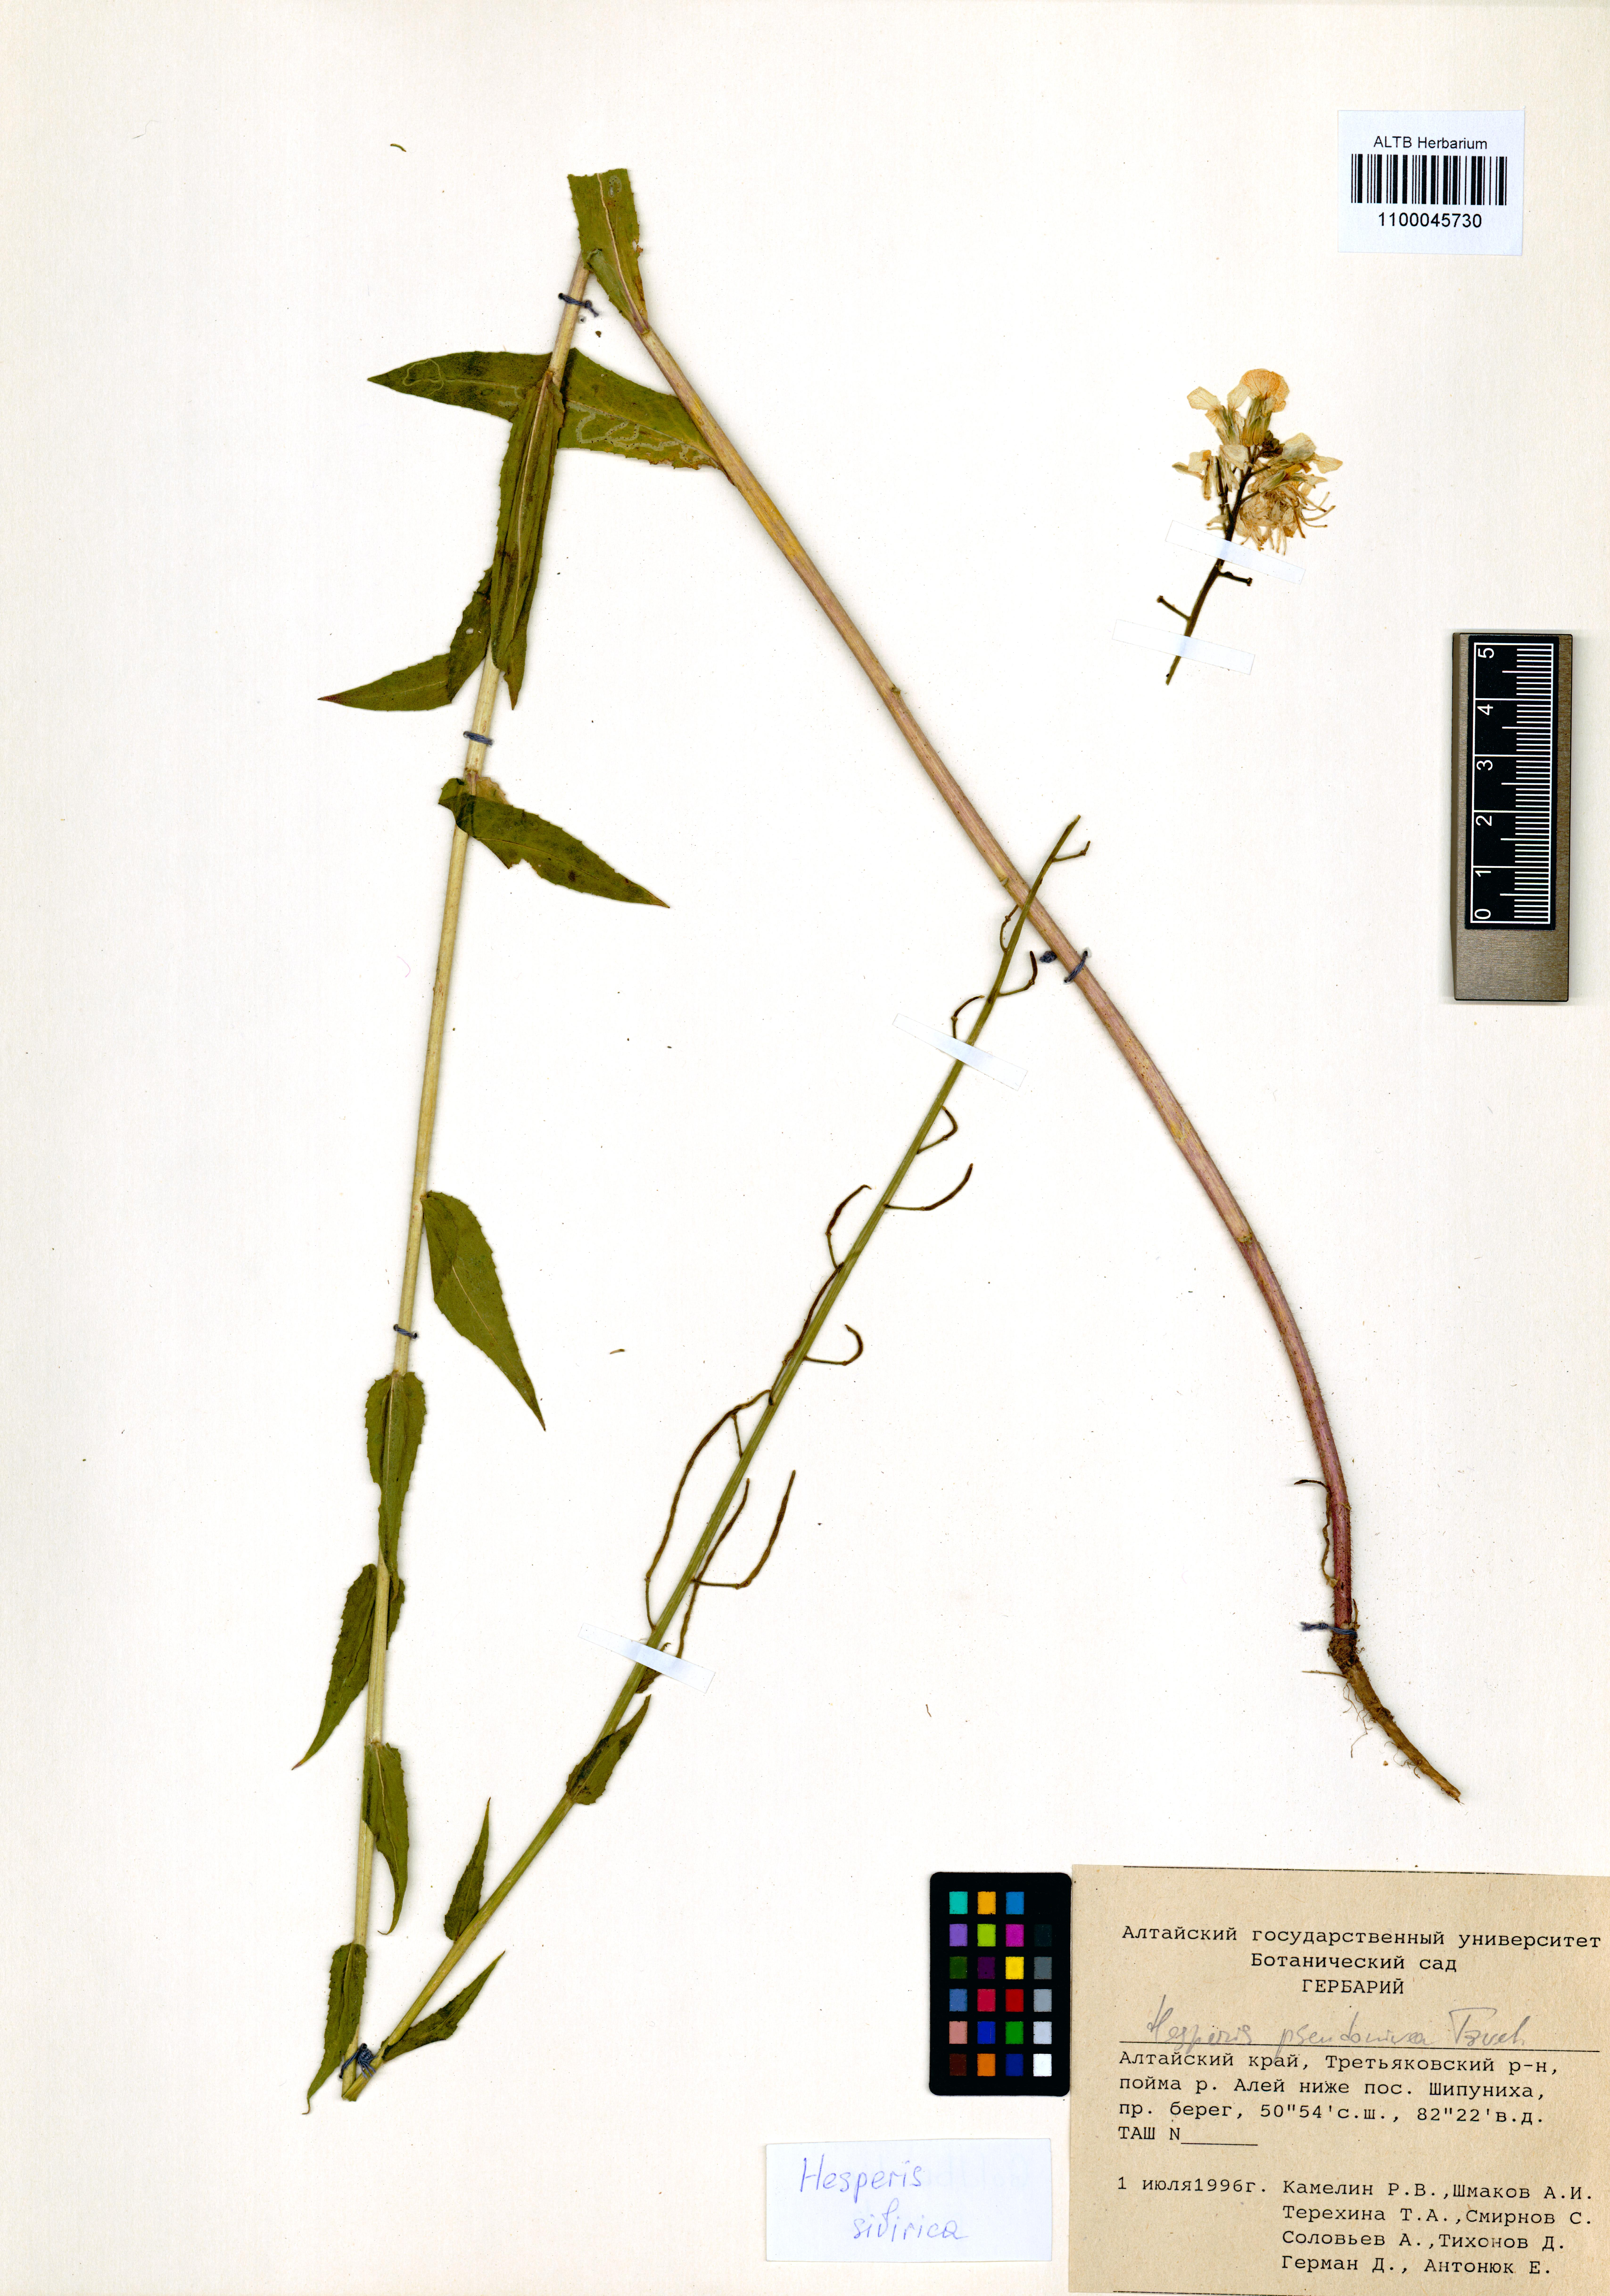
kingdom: Plantae
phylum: Tracheophyta
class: Magnoliopsida
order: Brassicales
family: Brassicaceae
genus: Hesperis
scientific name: Hesperis sibirica
